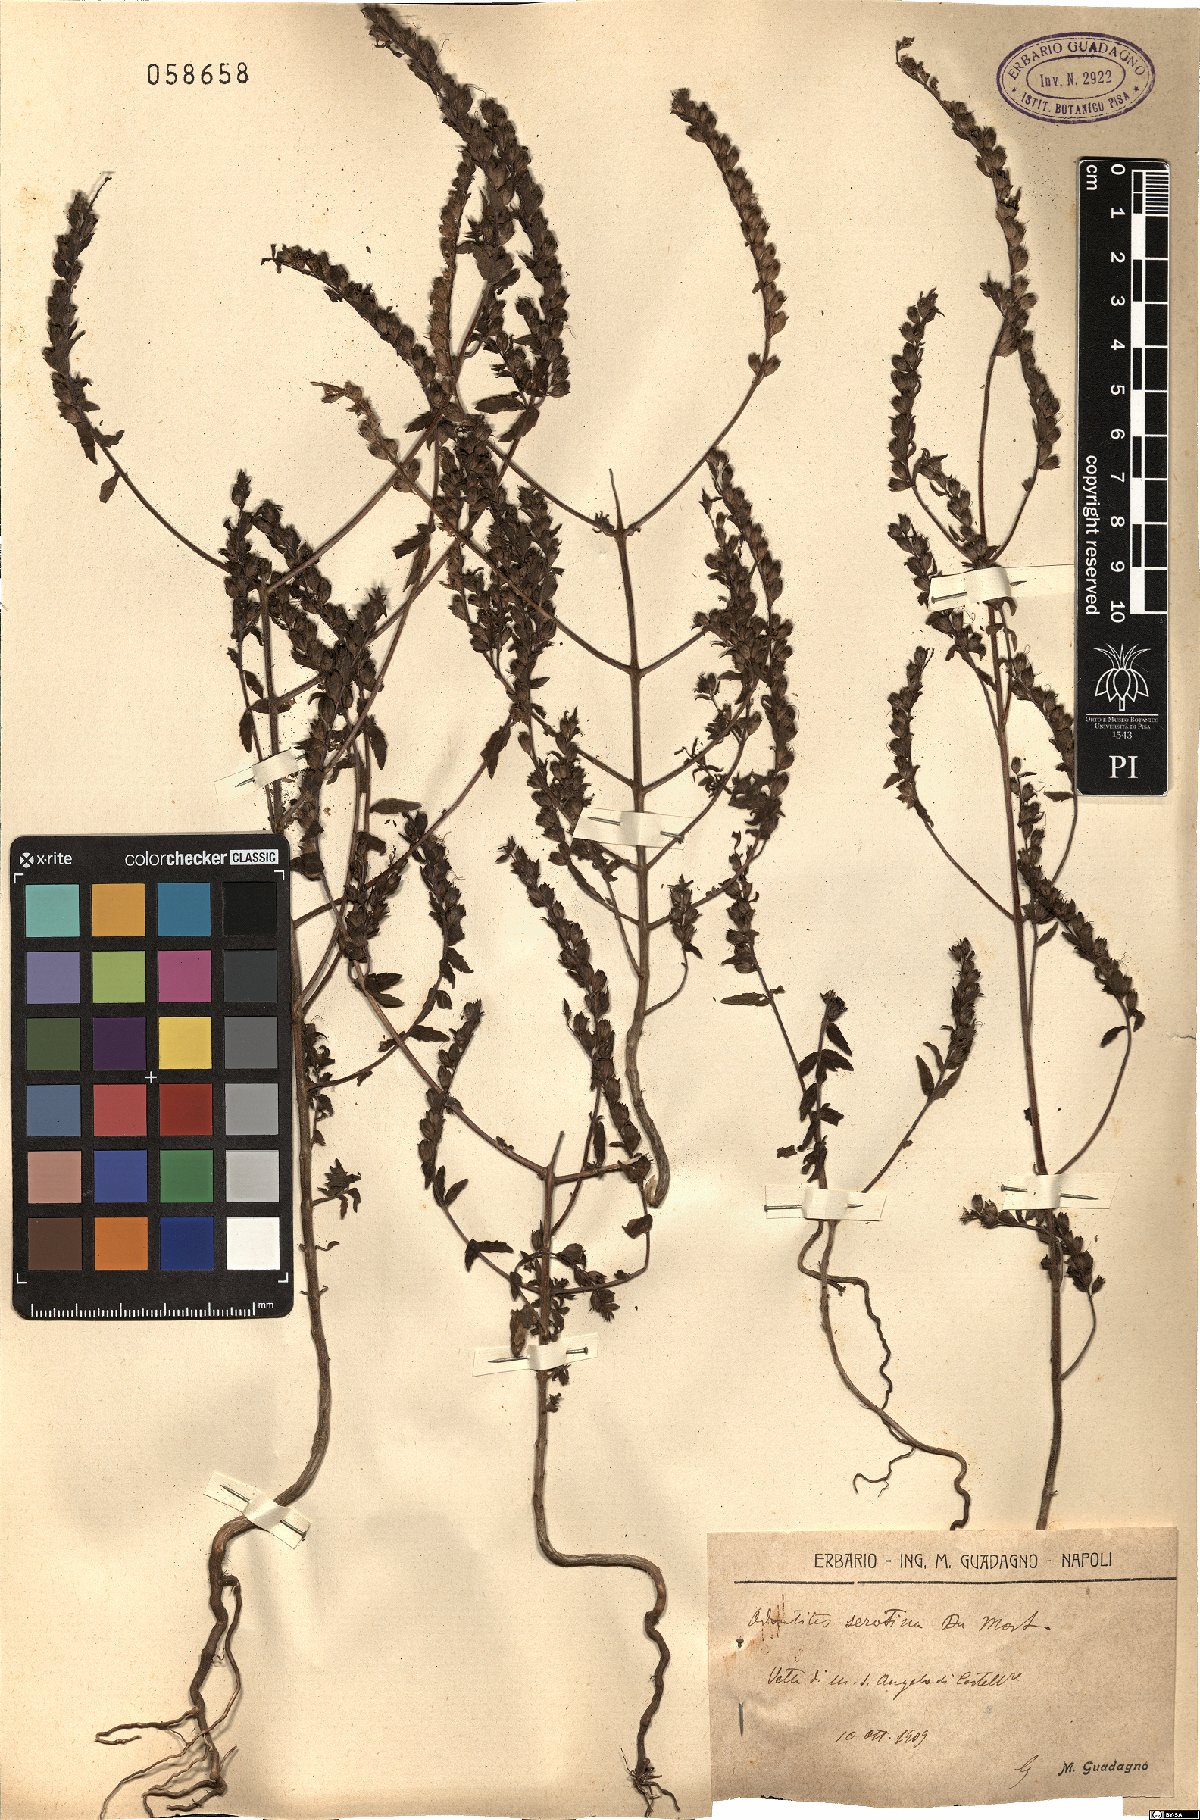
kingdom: Plantae
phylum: Tracheophyta
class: Magnoliopsida
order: Lamiales
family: Orobanchaceae
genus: Odontites
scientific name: Odontites vulgaris
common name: Broomrape
